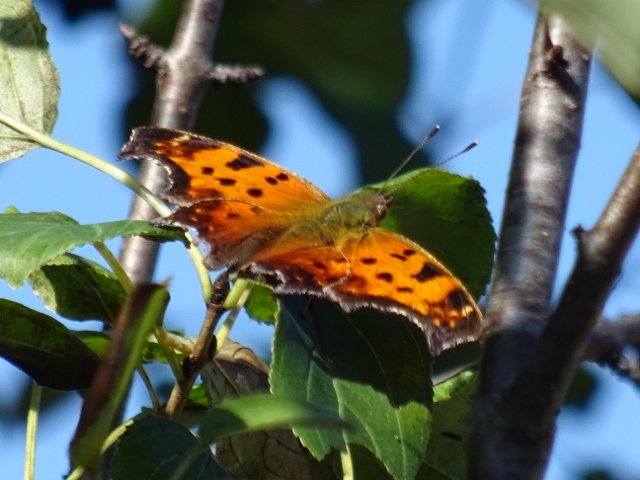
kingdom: Animalia
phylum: Arthropoda
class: Insecta
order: Lepidoptera
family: Nymphalidae
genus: Polygonia
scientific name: Polygonia comma
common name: Eastern Comma
